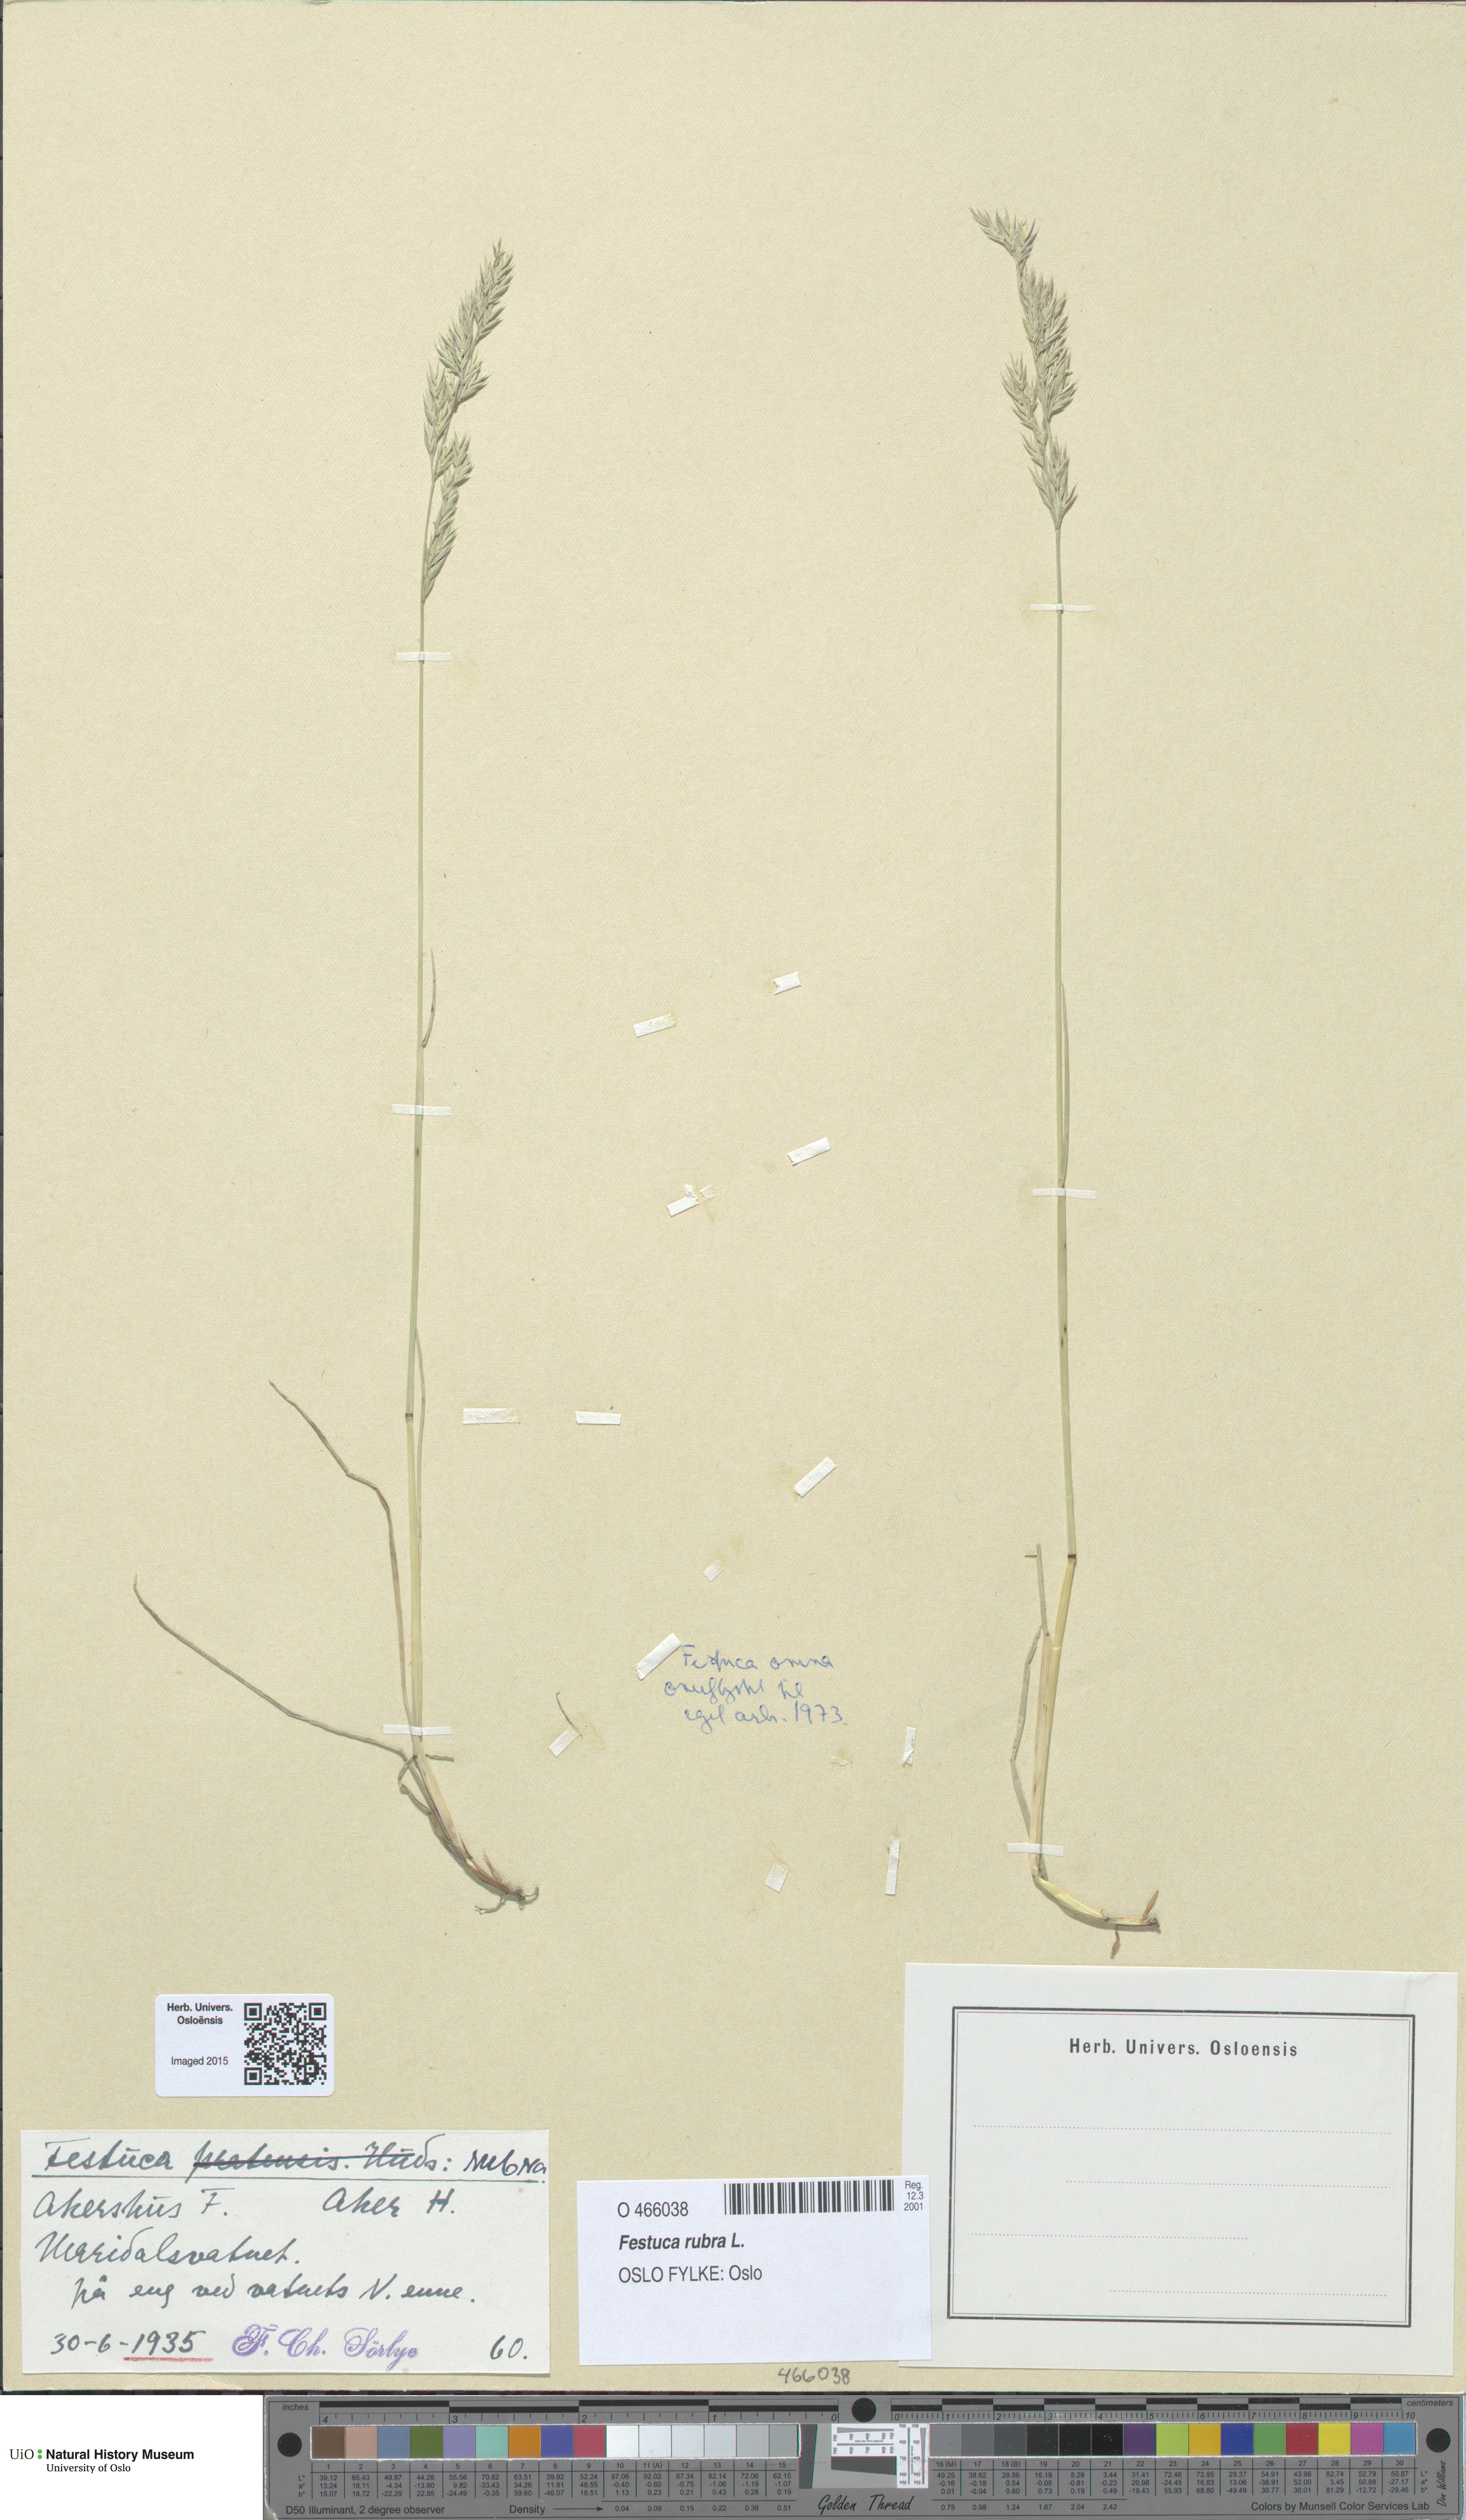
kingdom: Plantae
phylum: Tracheophyta
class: Liliopsida
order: Poales
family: Poaceae
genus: Festuca
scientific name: Festuca rubra
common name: Red fescue
